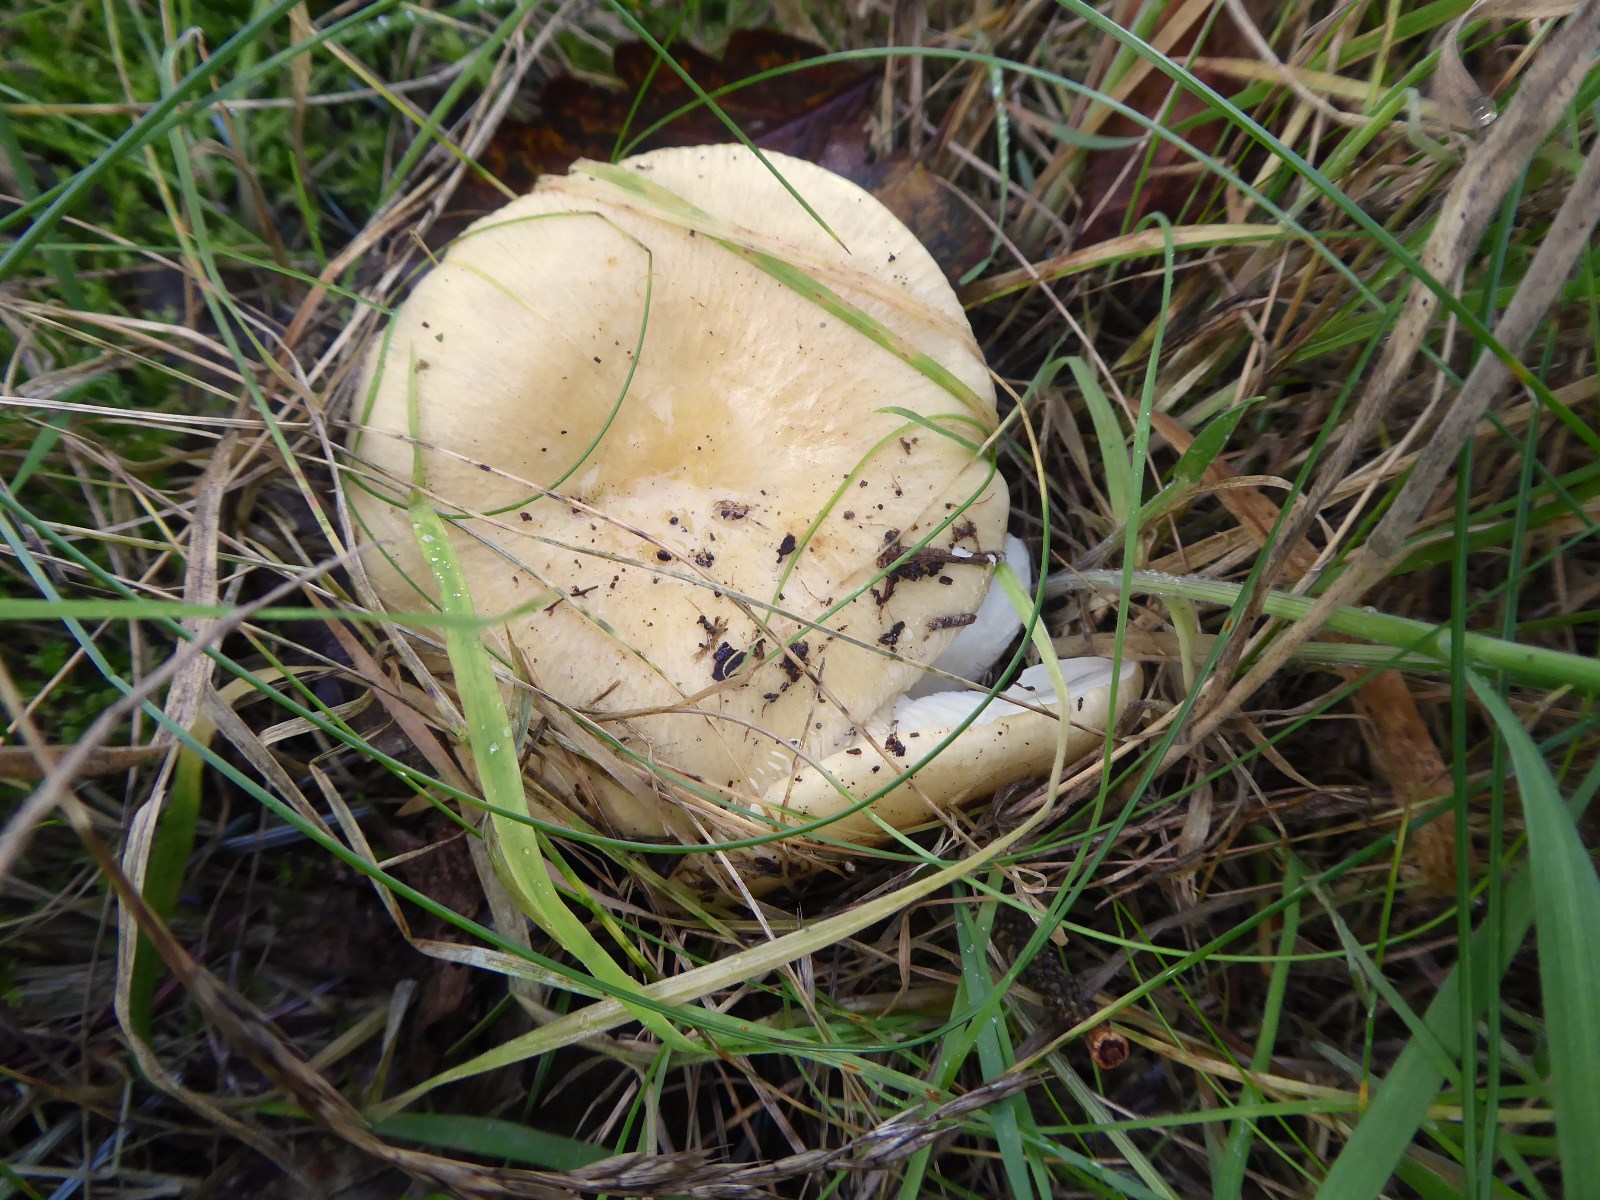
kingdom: Fungi
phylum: Basidiomycota
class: Agaricomycetes
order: Russulales
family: Russulaceae
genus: Russula
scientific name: Russula ochroleuca
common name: okkergul skørhat
